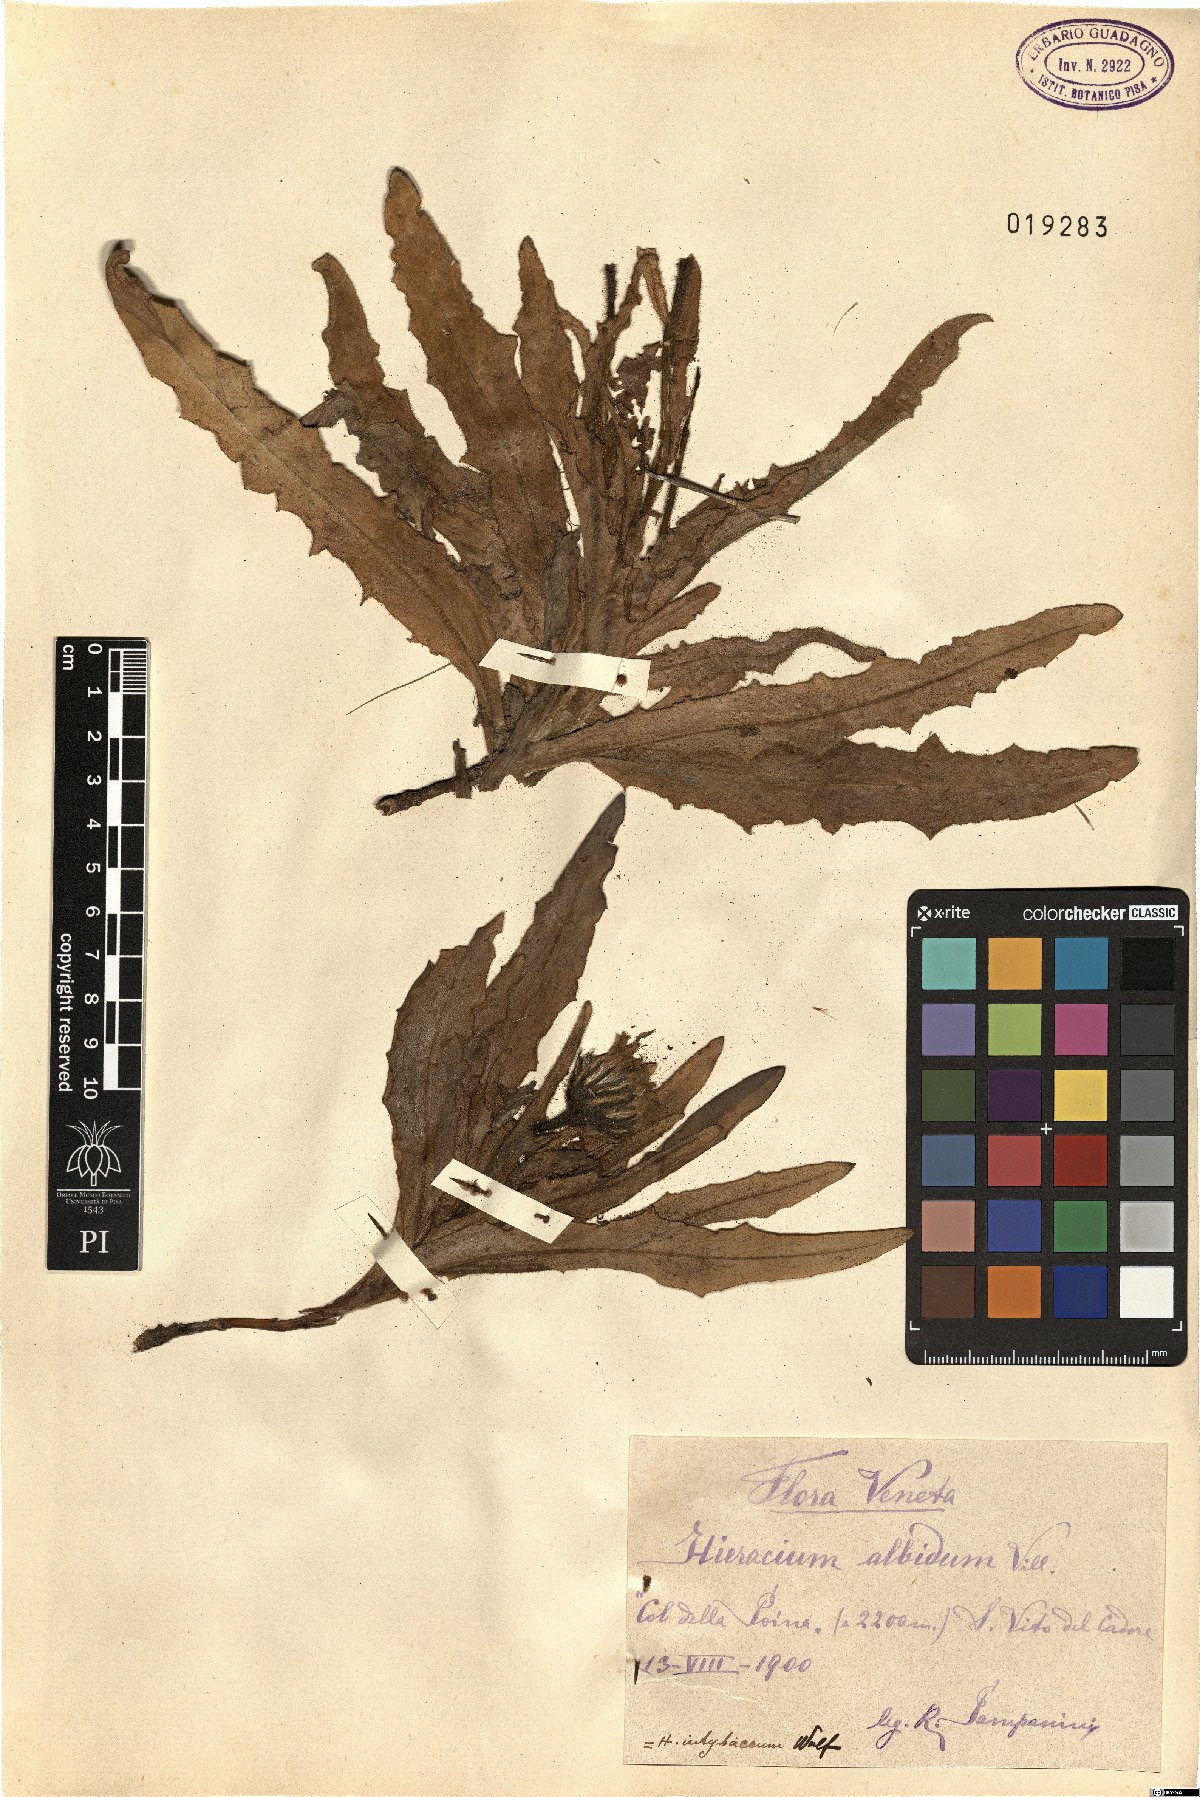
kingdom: Plantae
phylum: Tracheophyta
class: Magnoliopsida
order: Asterales
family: Asteraceae
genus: Schlagintweitia
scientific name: Schlagintweitia intybacea
